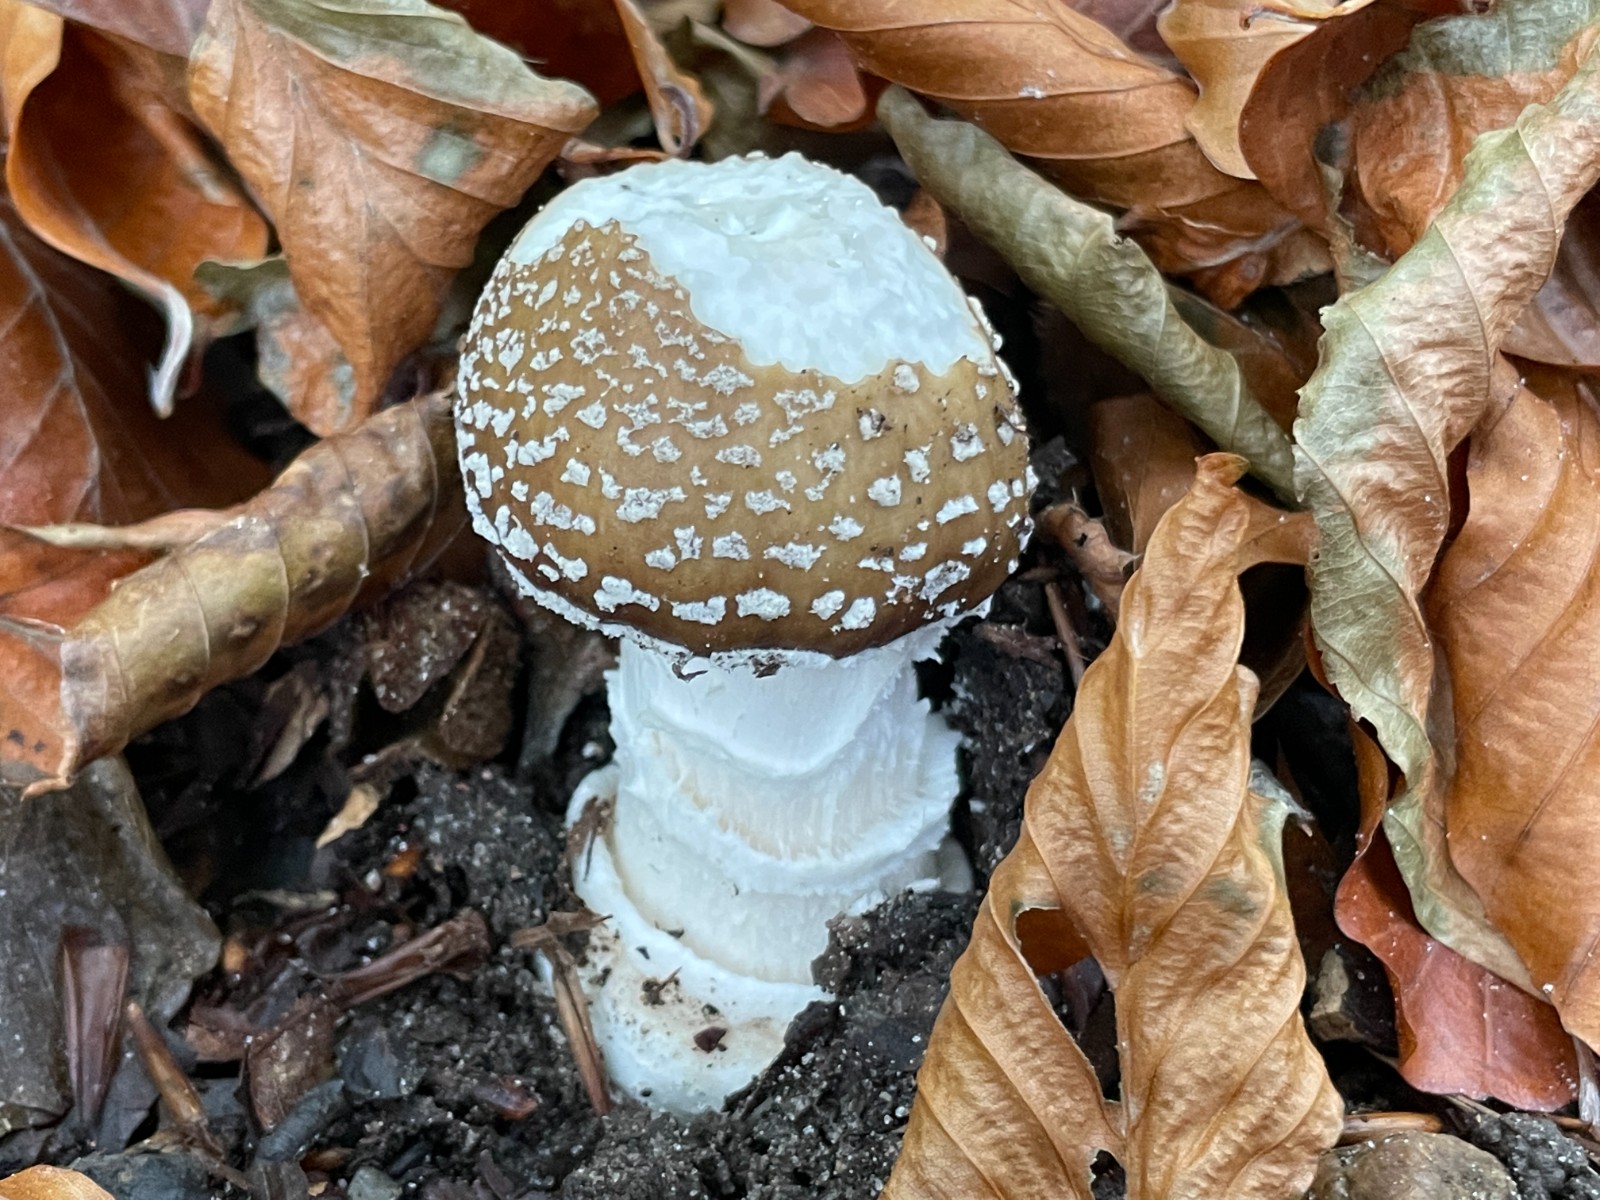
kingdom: Fungi
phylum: Basidiomycota
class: Agaricomycetes
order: Agaricales
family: Amanitaceae
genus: Amanita
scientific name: Amanita pantherina
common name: panter-fluesvamp
